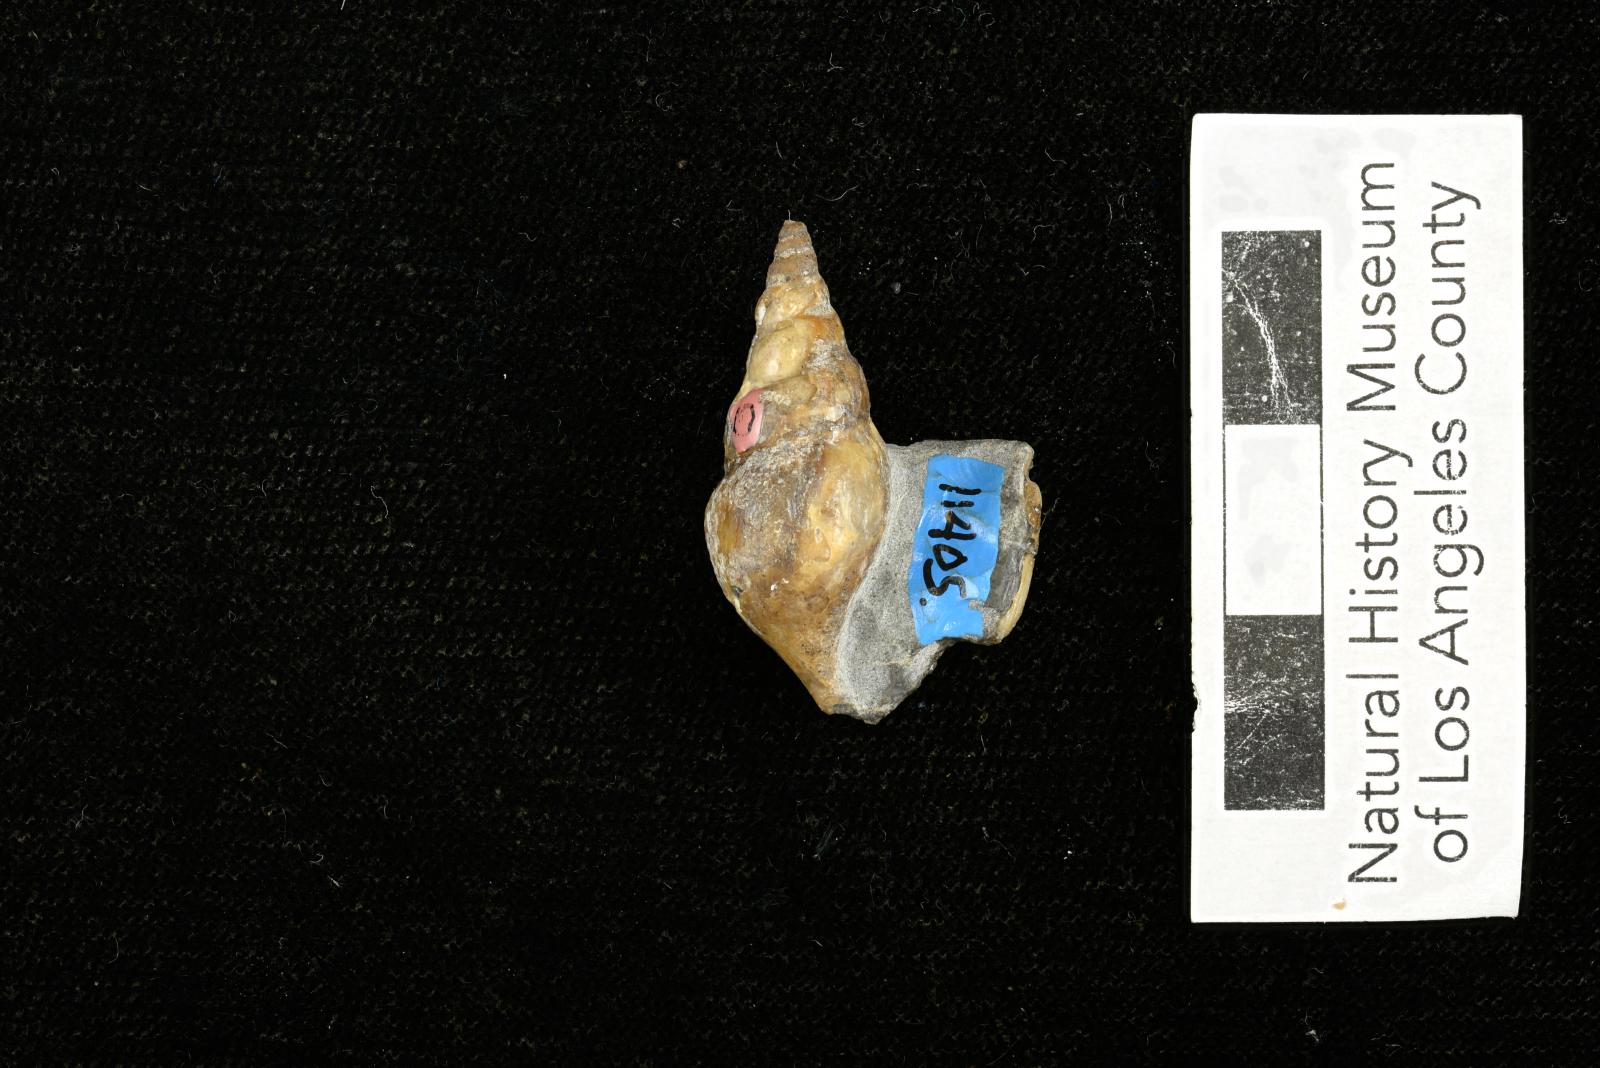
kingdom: Animalia
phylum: Mollusca
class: Gastropoda
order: Littorinimorpha
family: Aporrhaidae
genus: Latiala
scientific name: Latiala Alaria nodosa
